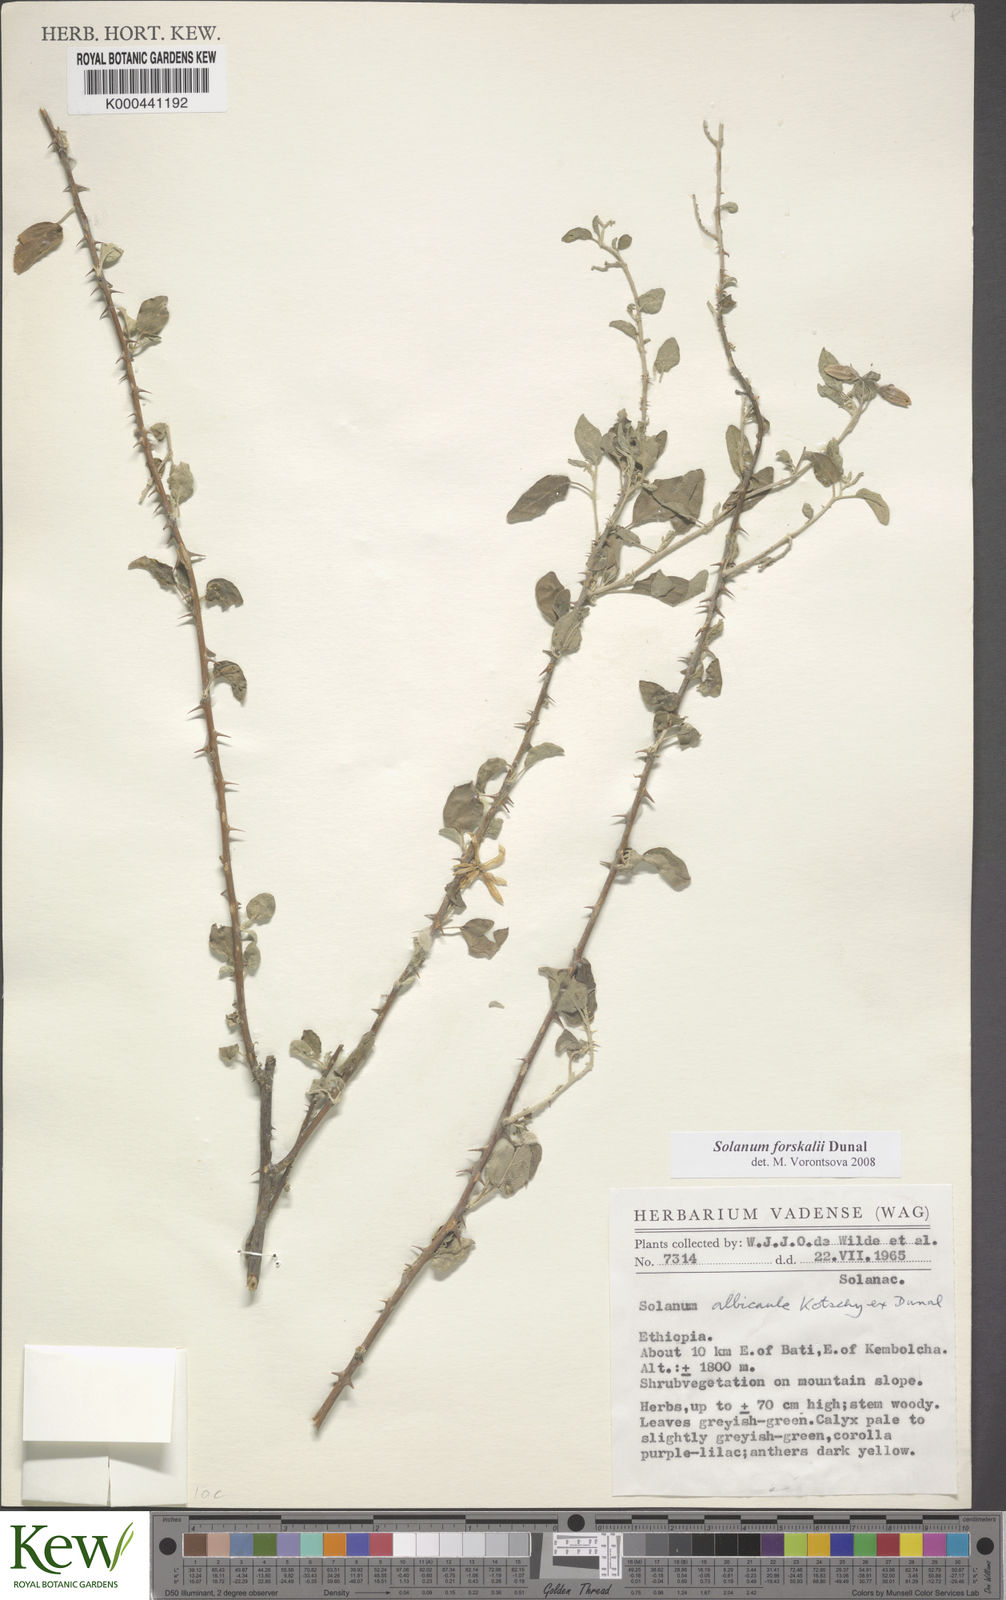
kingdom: Plantae
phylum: Tracheophyta
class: Magnoliopsida
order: Solanales
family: Solanaceae
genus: Solanum
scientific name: Solanum
